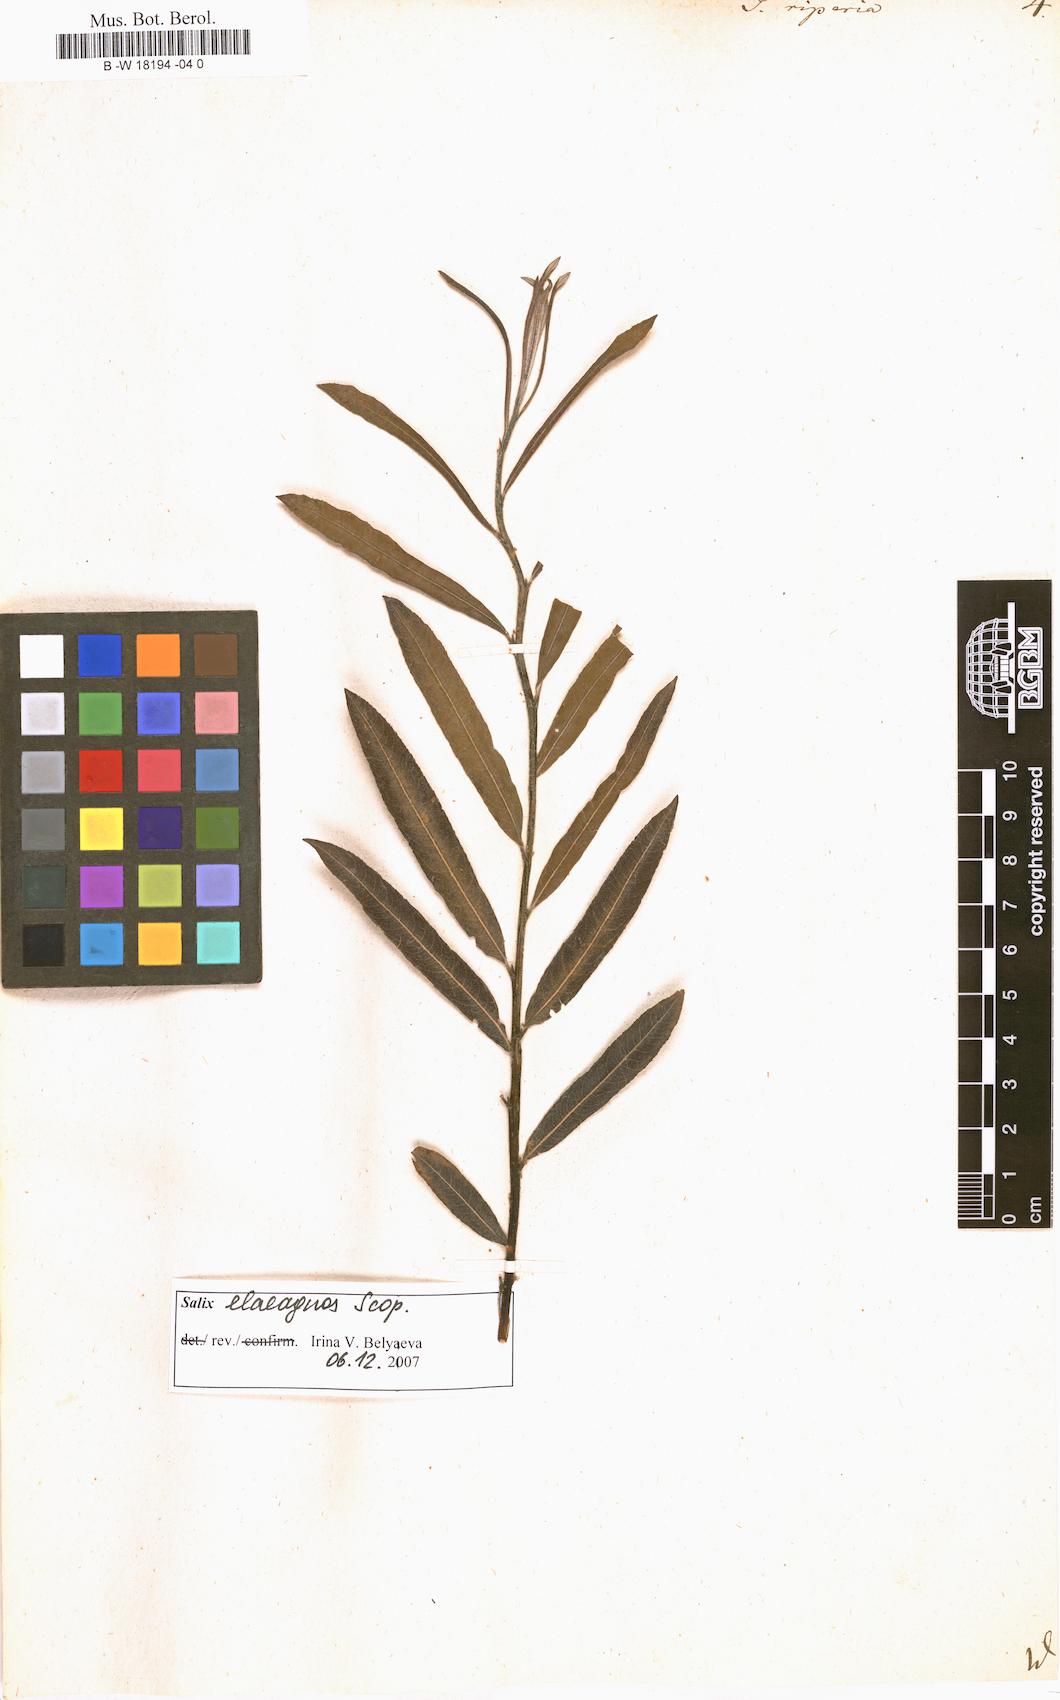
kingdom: Plantae
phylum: Tracheophyta
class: Magnoliopsida
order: Malpighiales
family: Salicaceae
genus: Salix
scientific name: Salix eleagnos
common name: Elaeagnus willow
